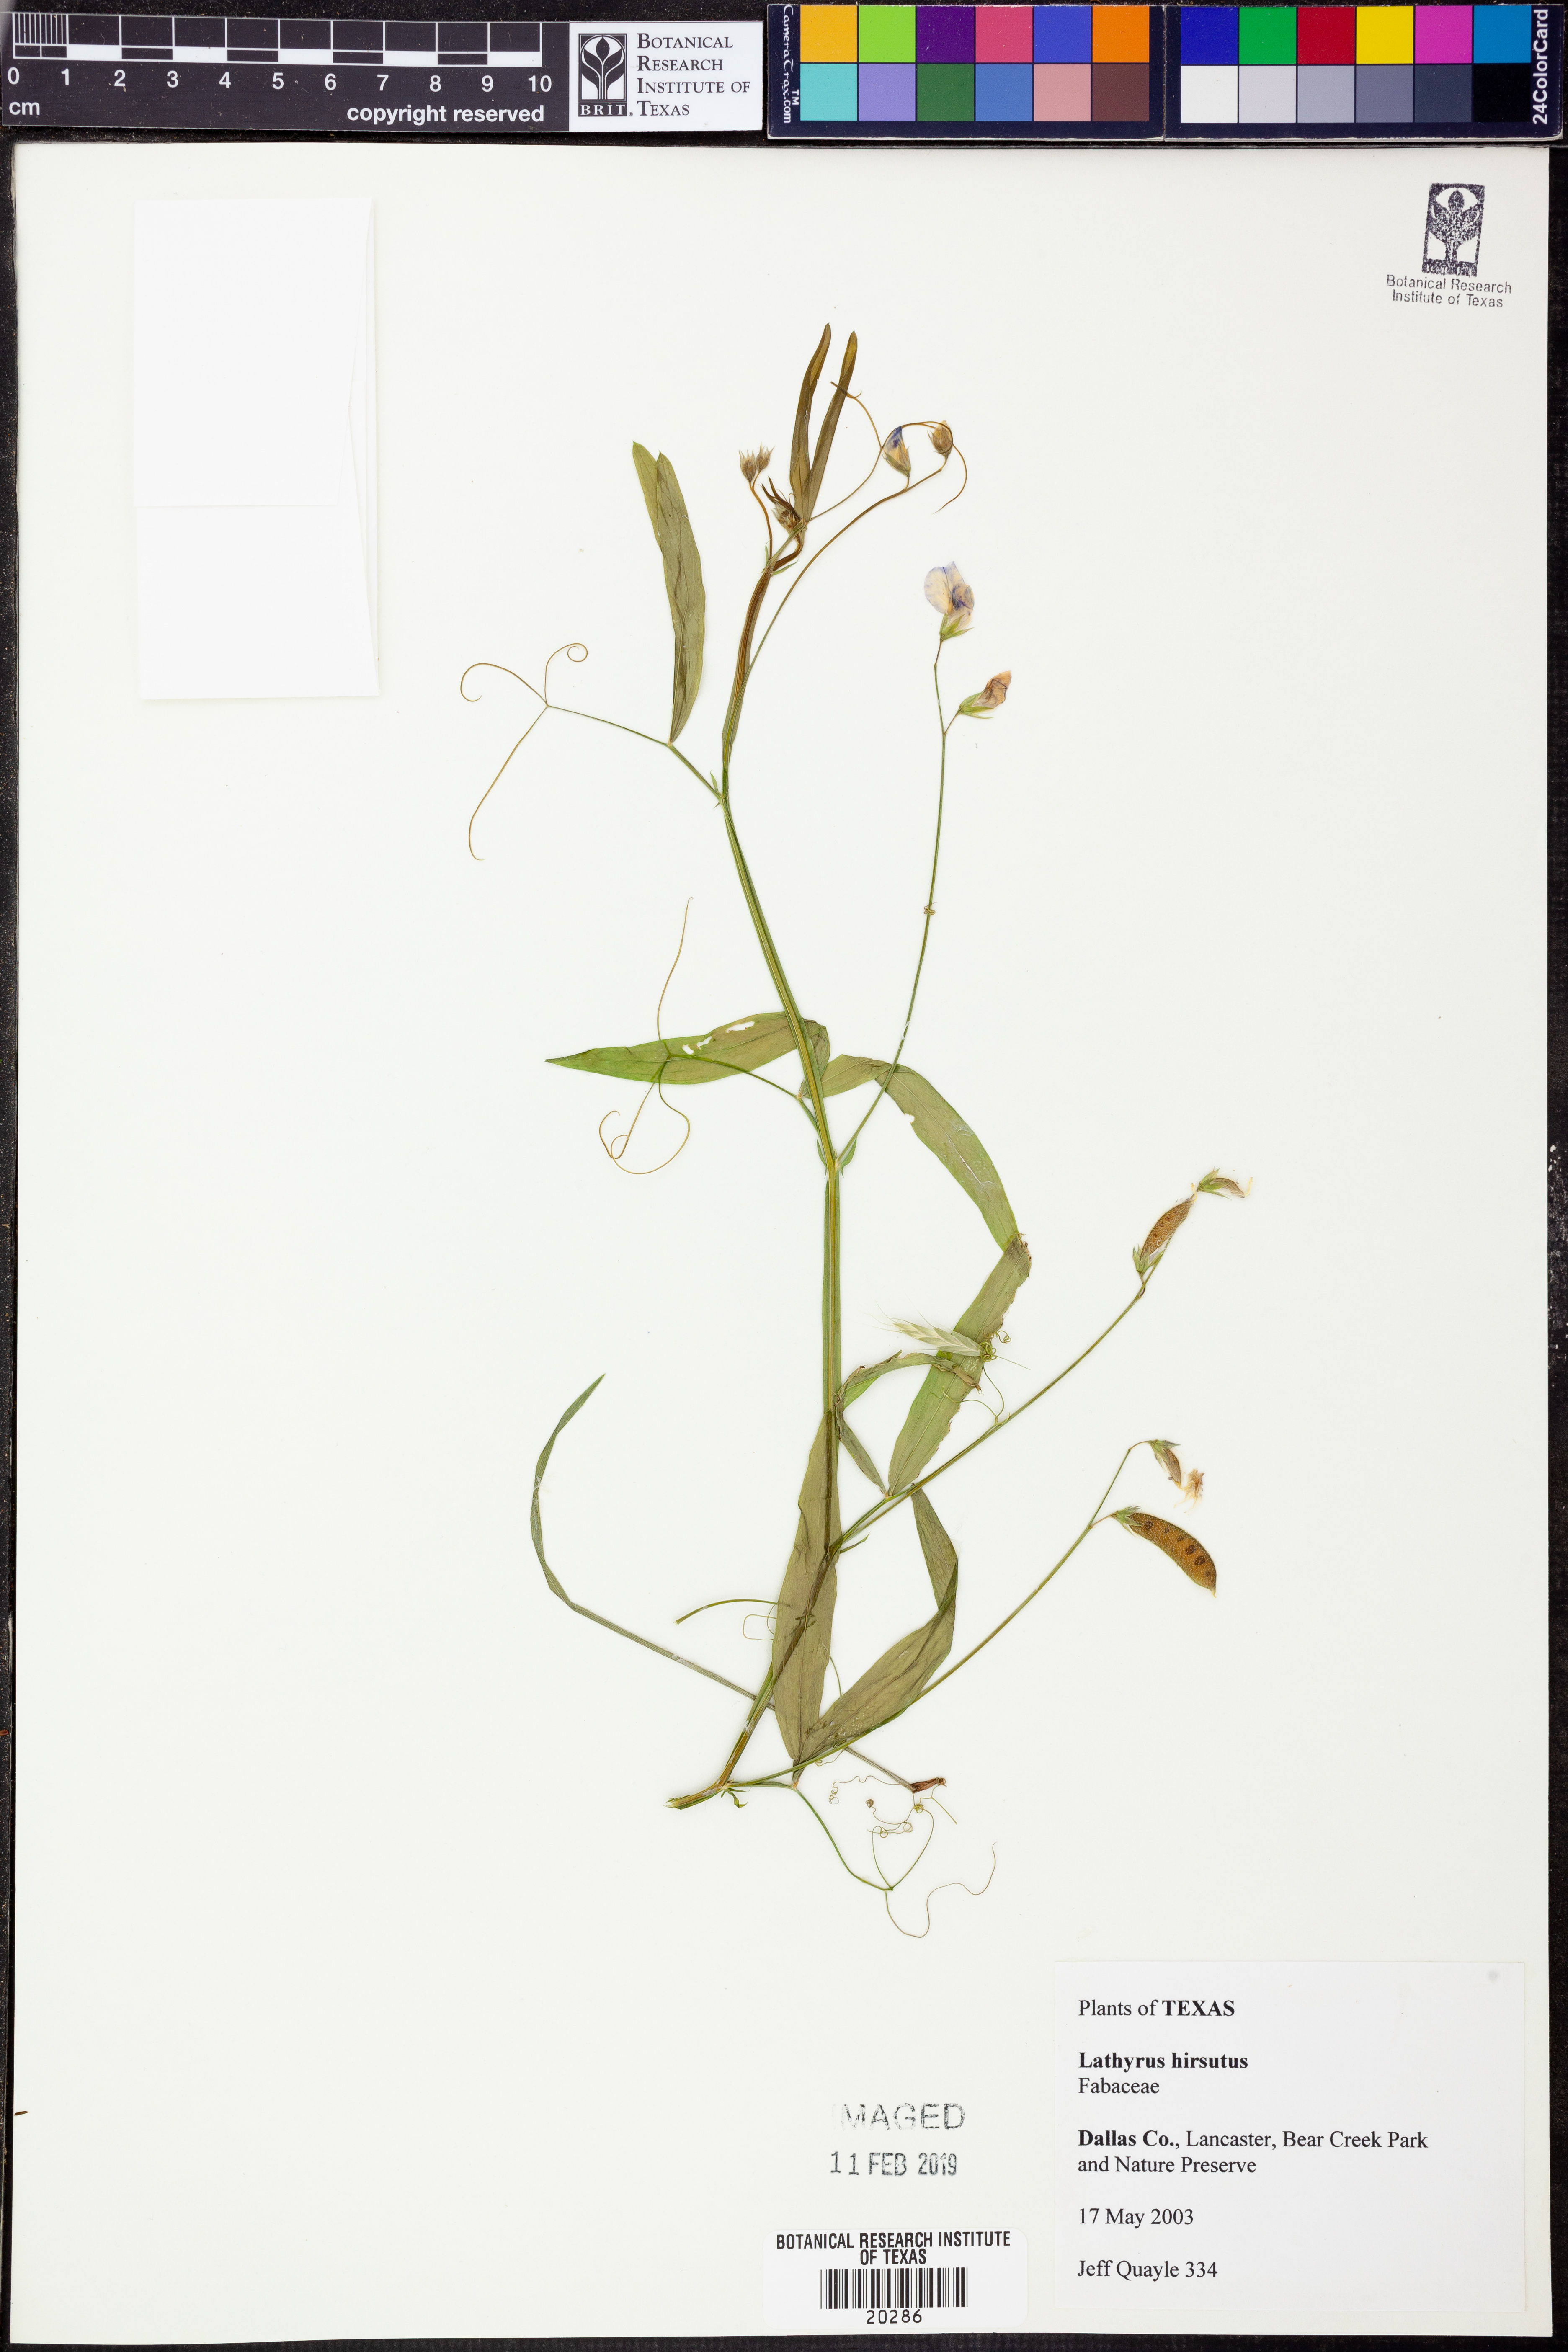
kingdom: Plantae
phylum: Tracheophyta
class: Magnoliopsida
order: Fabales
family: Fabaceae
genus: Lathyrus
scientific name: Lathyrus hirsutus
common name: Hairy vetchling
